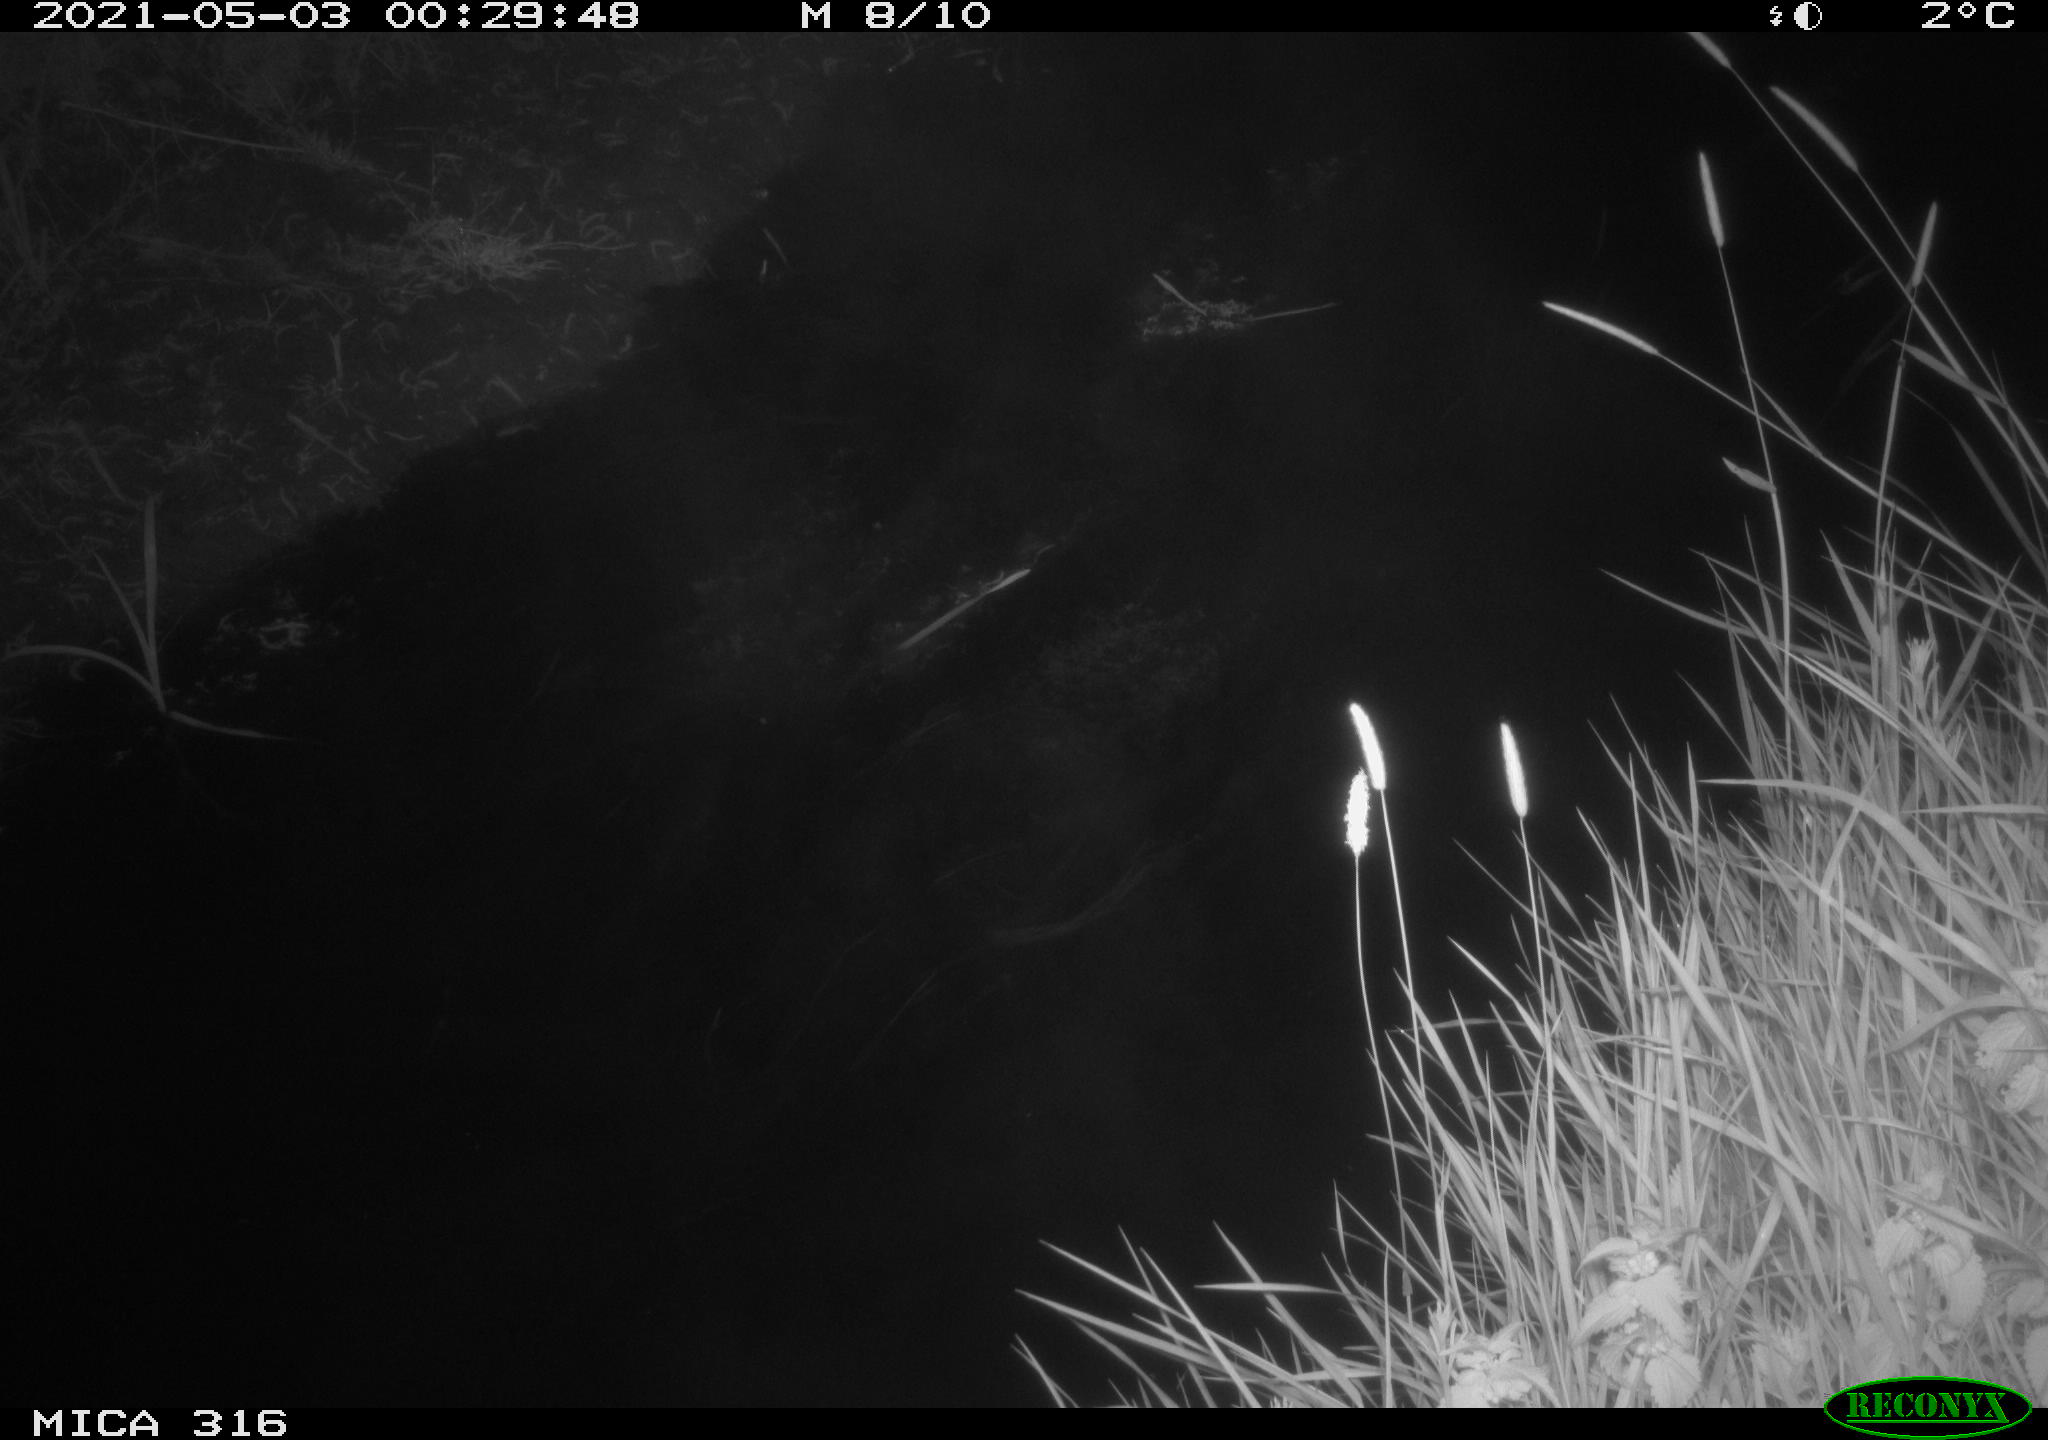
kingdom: Animalia
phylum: Chordata
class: Aves
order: Anseriformes
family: Anatidae
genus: Anas
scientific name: Anas platyrhynchos
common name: Mallard
